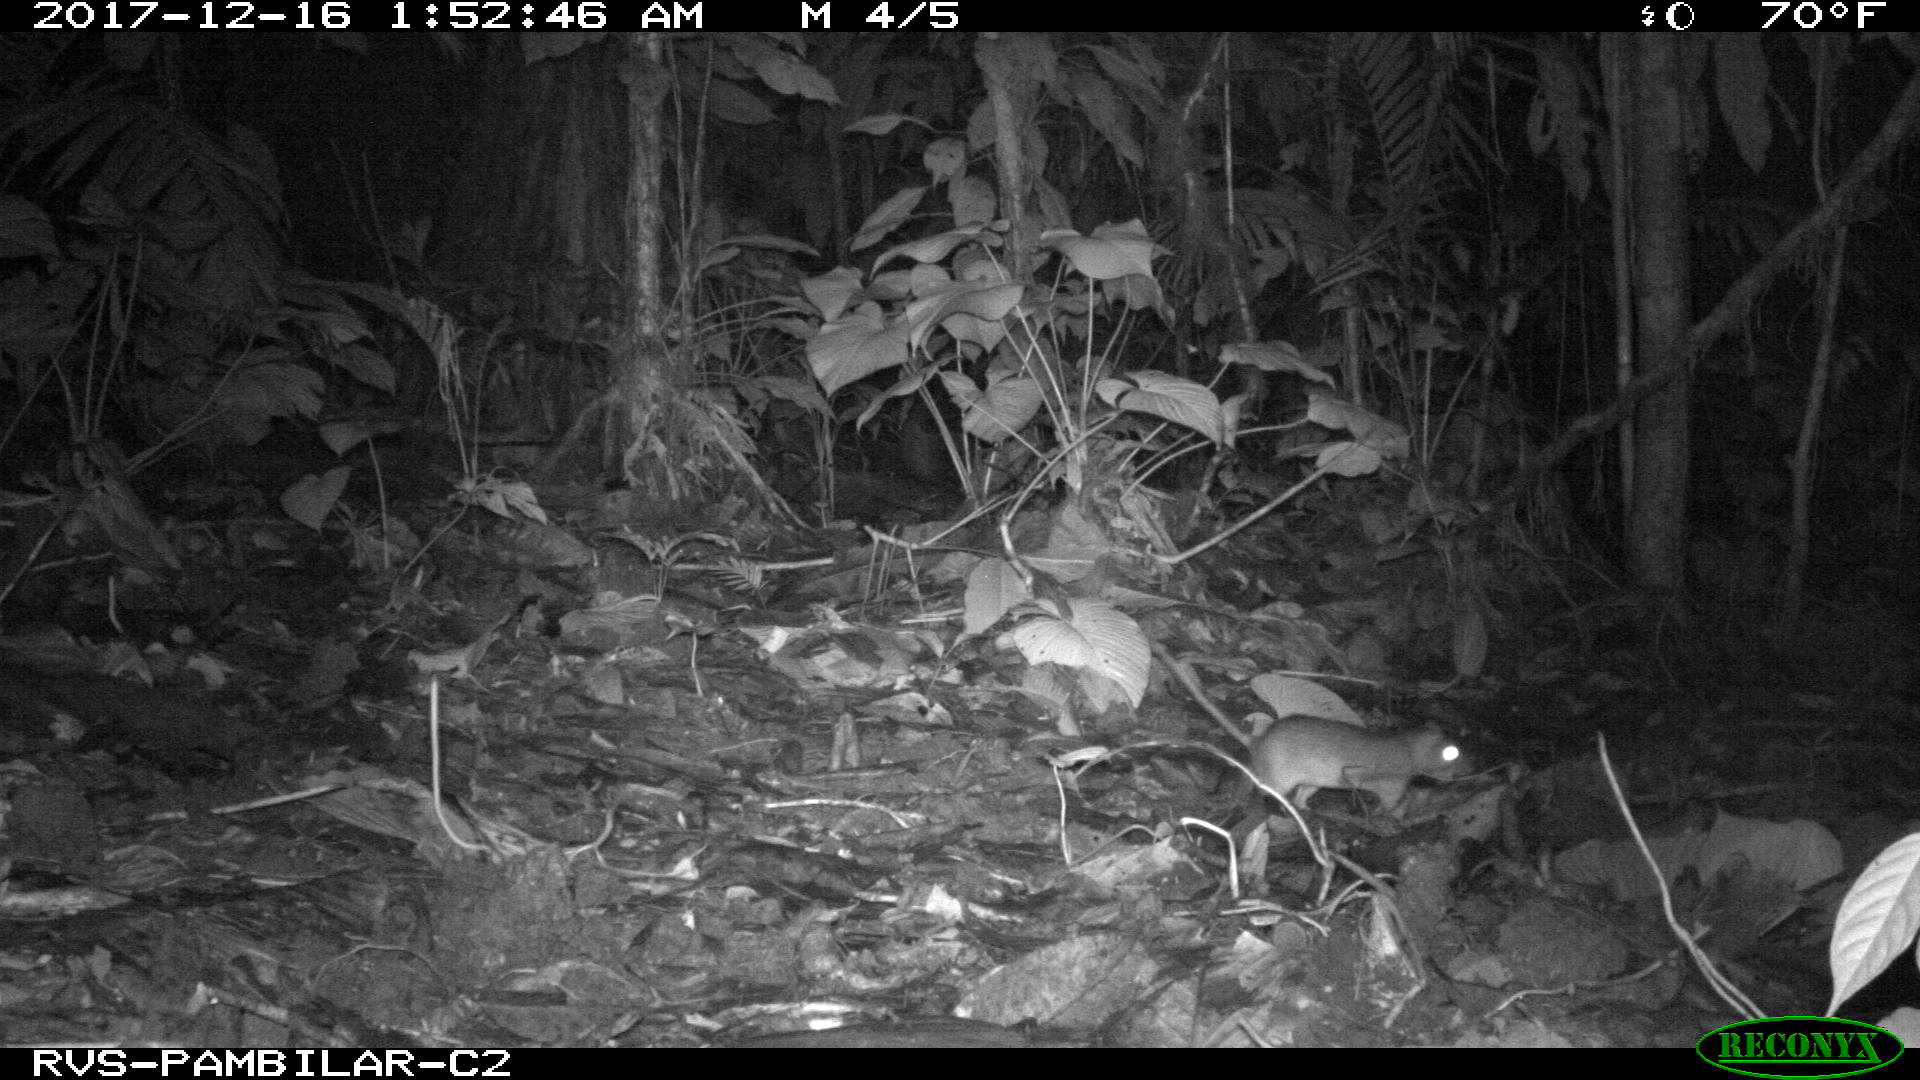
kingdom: Animalia
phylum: Chordata
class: Mammalia
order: Rodentia
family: Echimyidae
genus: Proechimys
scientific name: Proechimys
